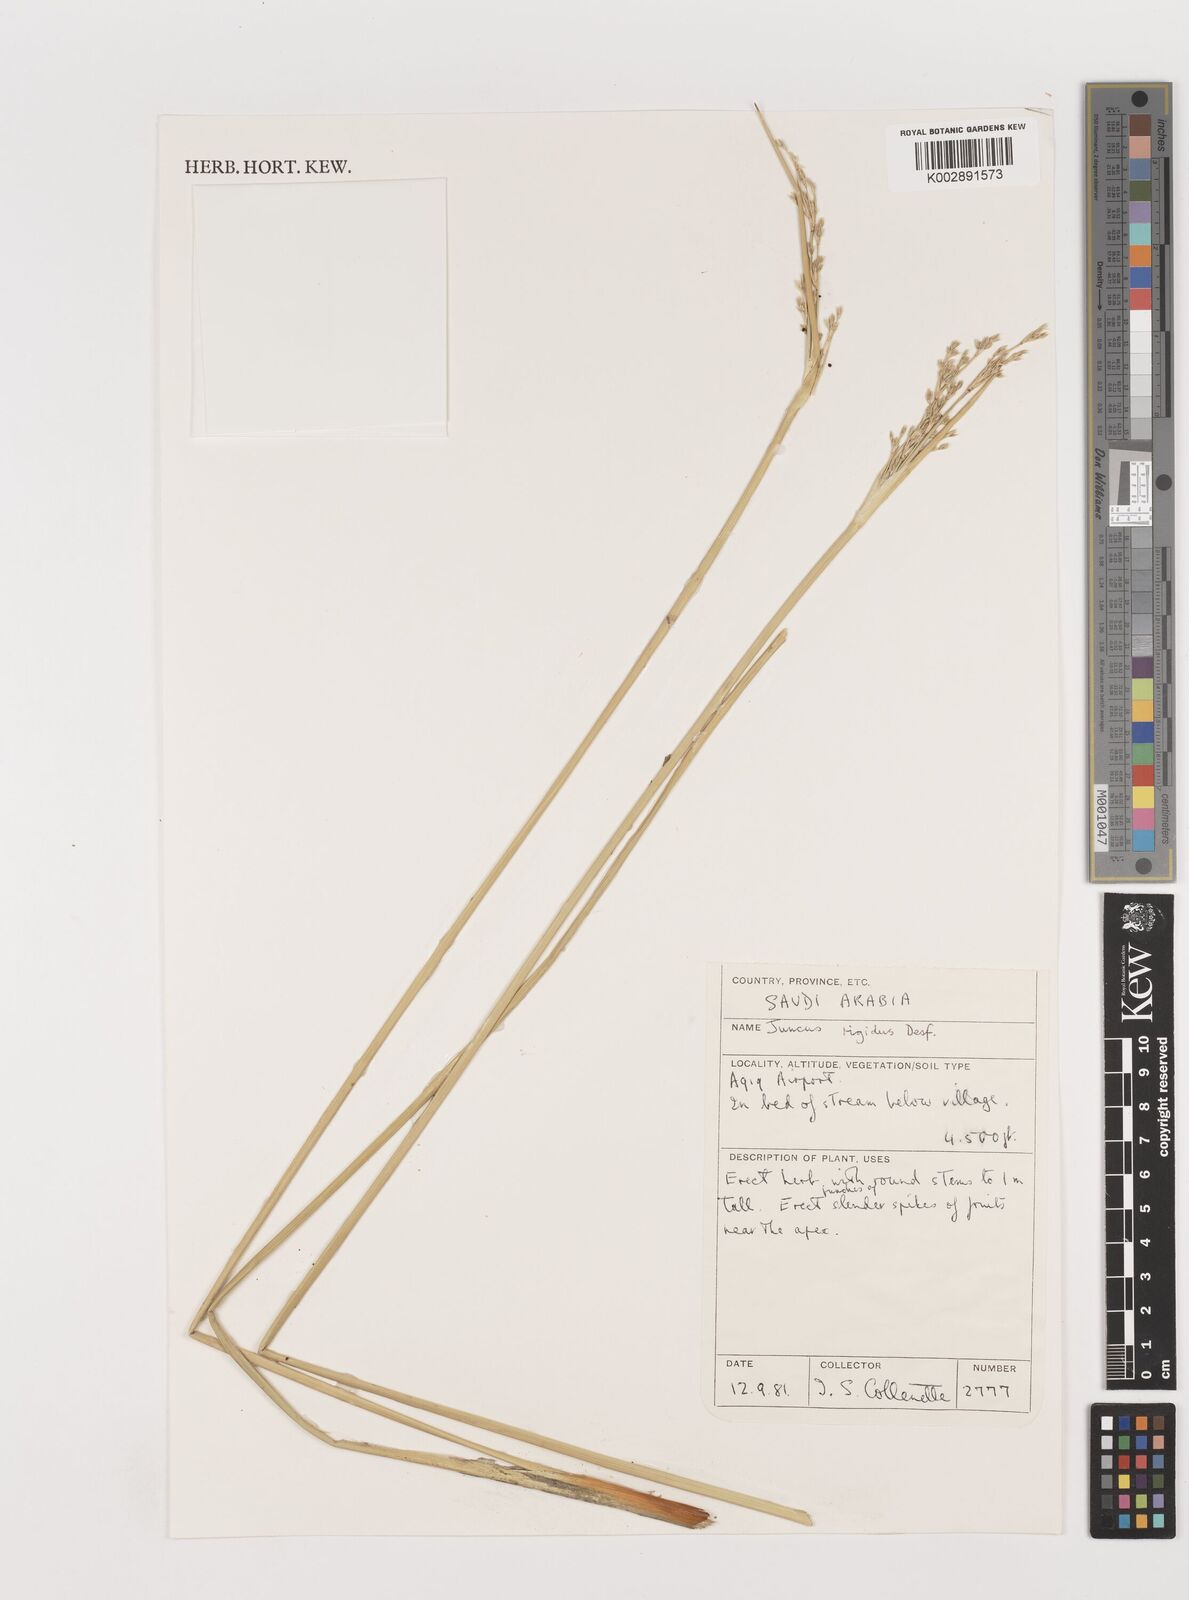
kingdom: Plantae
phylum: Tracheophyta
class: Liliopsida
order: Poales
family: Juncaceae
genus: Juncus
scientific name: Juncus rigidus
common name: Hard sea rush
